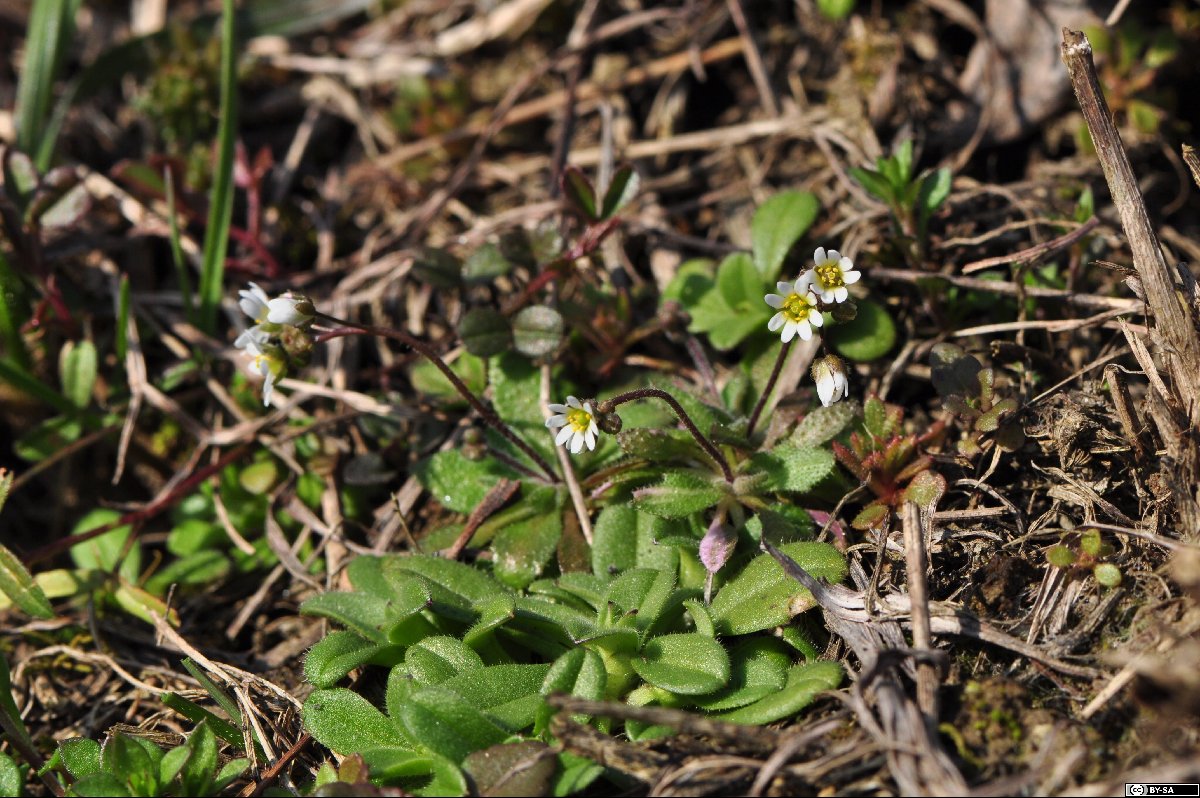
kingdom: Plantae
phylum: Tracheophyta
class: Magnoliopsida
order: Brassicales
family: Brassicaceae
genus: Draba
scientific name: Draba verna
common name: Spring draba
